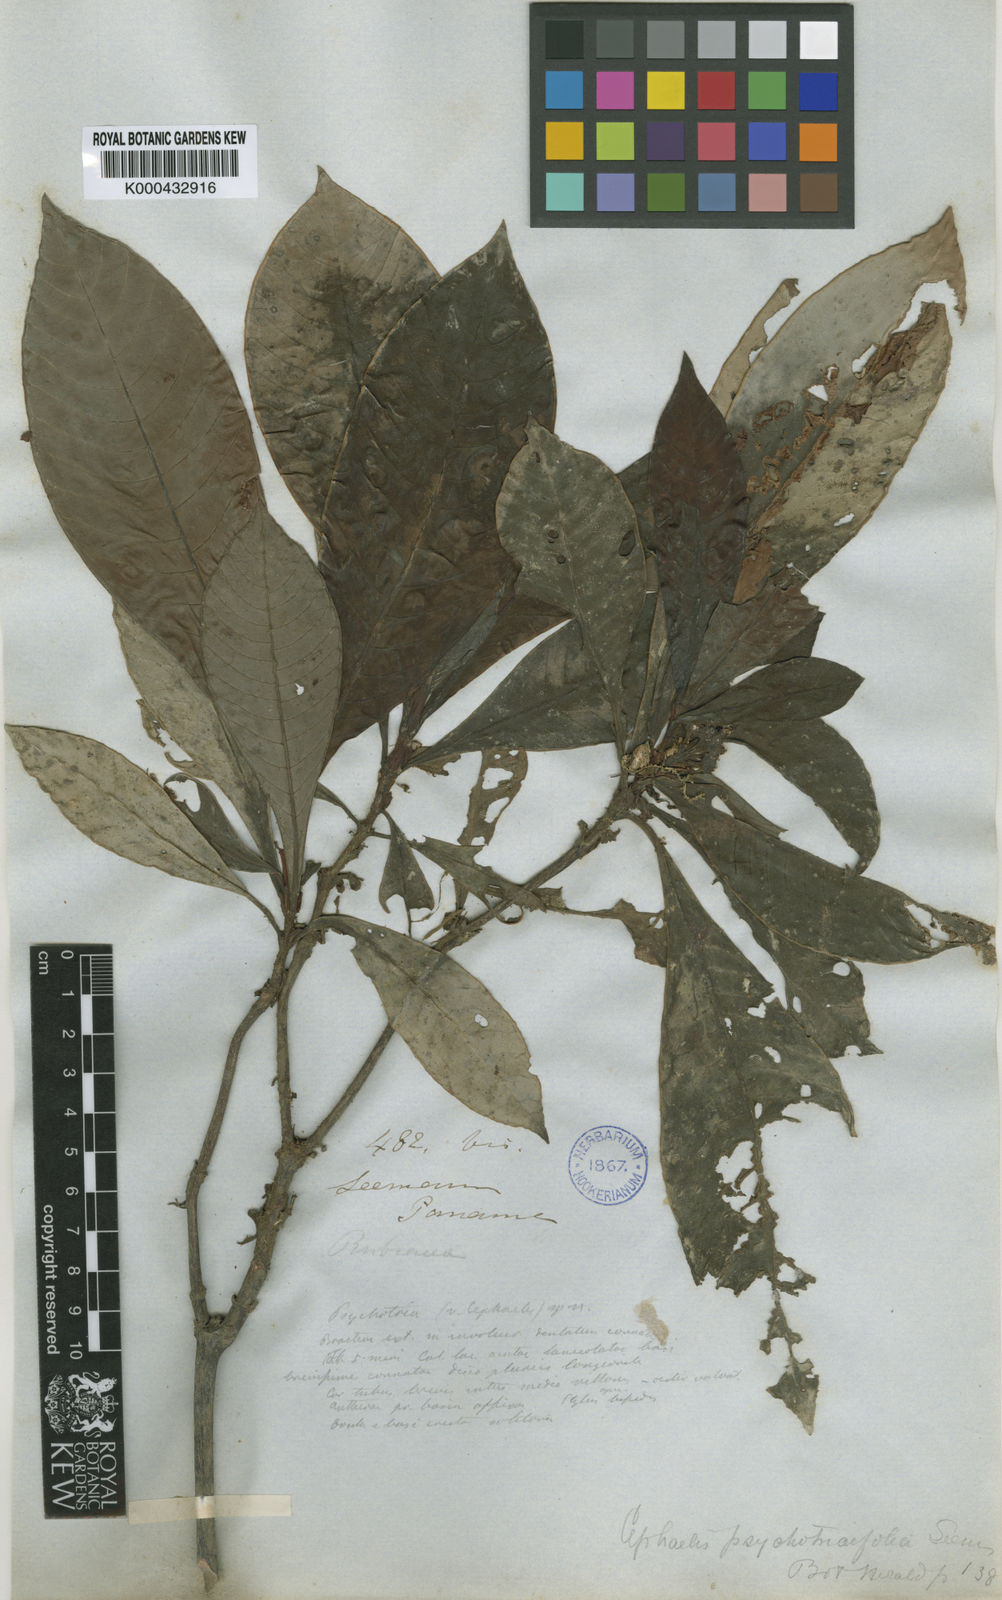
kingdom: Plantae
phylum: Tracheophyta
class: Magnoliopsida
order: Gentianales
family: Rubiaceae
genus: Psychotria
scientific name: Psychotria psychotriifolia
